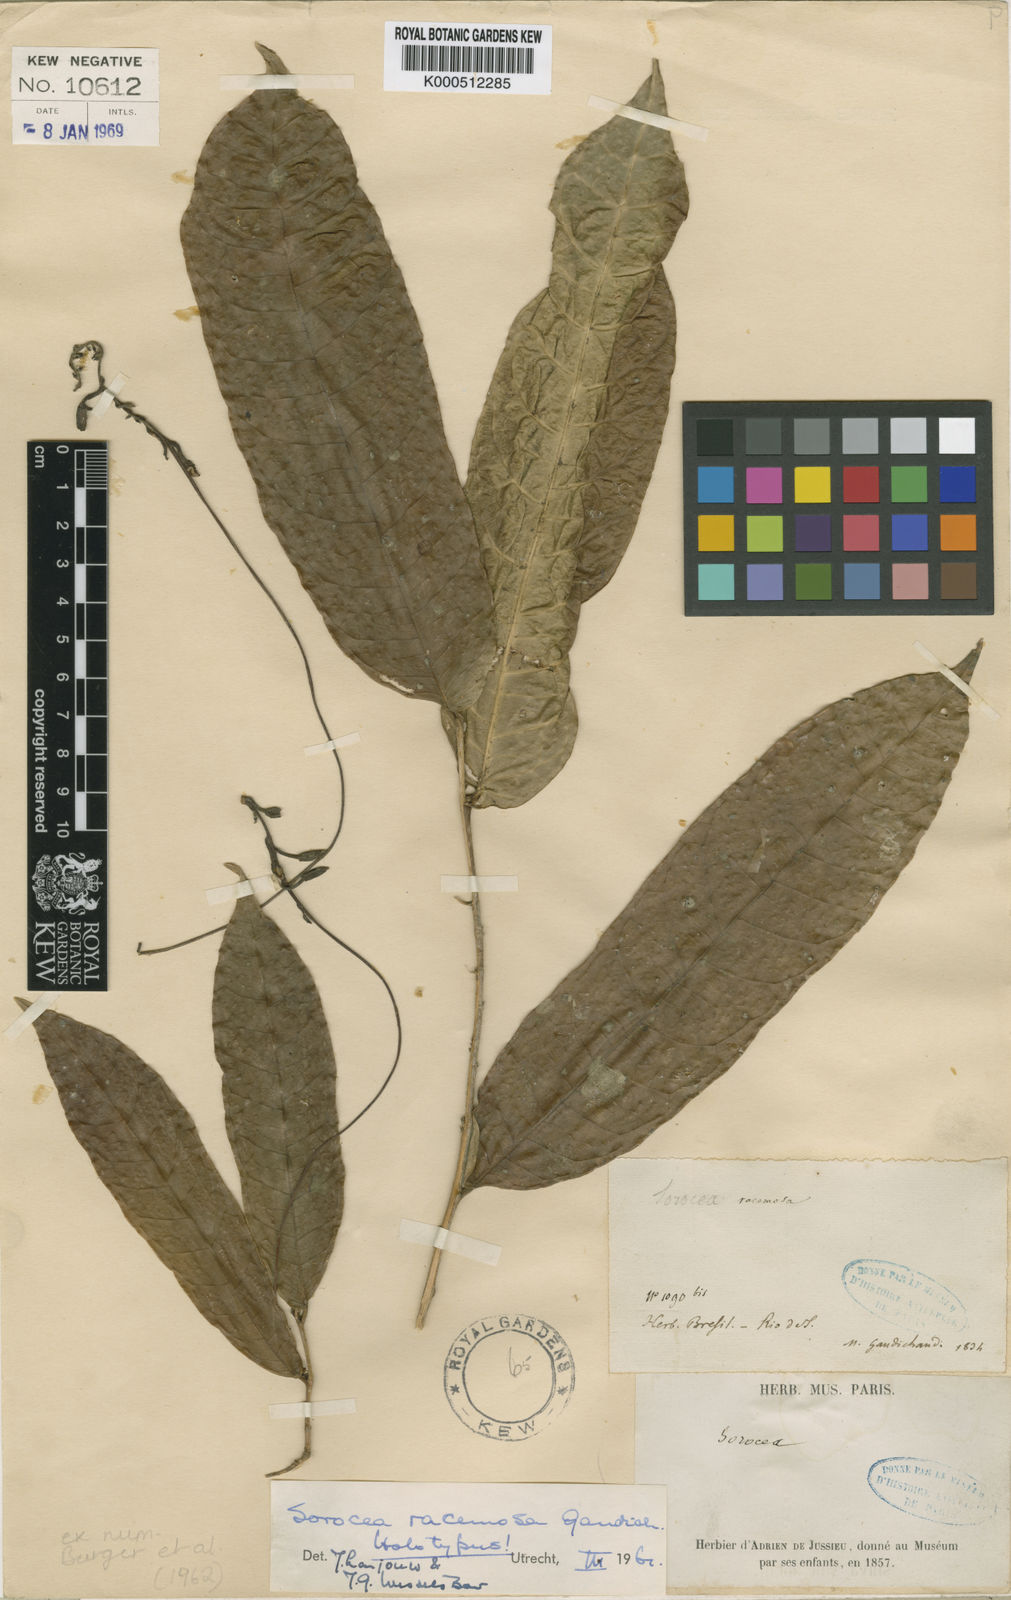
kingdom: Plantae
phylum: Tracheophyta
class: Magnoliopsida
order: Rosales
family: Moraceae
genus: Sorocea
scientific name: Sorocea hilarii
